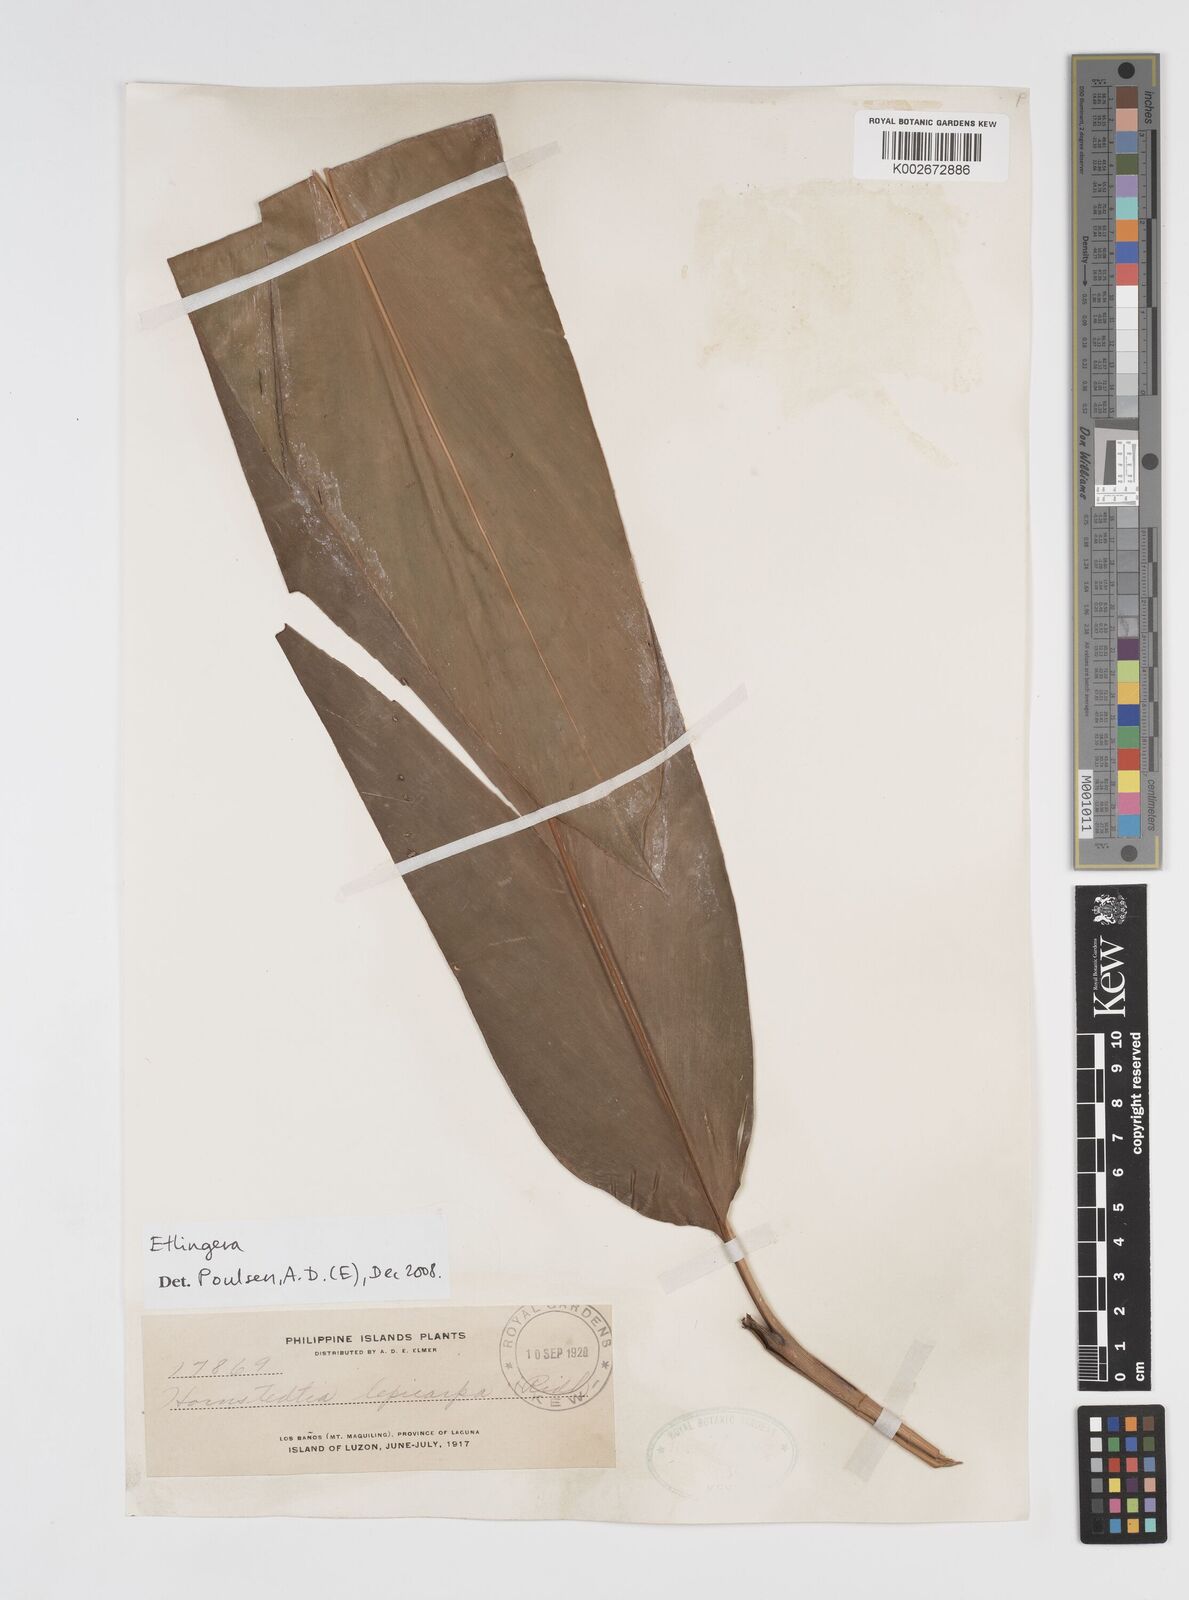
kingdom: Plantae
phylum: Tracheophyta
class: Liliopsida
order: Zingiberales
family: Zingiberaceae
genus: Etlingera
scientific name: Etlingera
